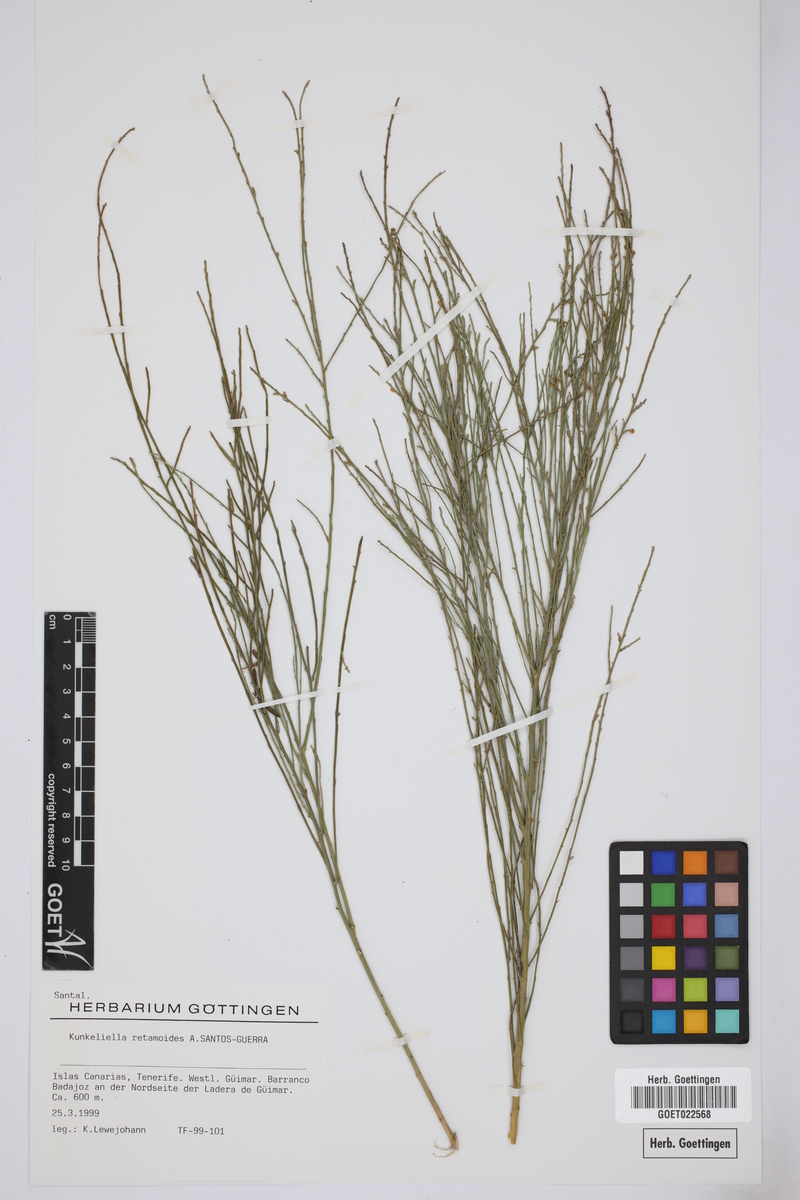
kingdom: Plantae
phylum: Tracheophyta
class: Magnoliopsida
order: Santalales
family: Thesiaceae
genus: Thesium
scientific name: Thesium retamoides
